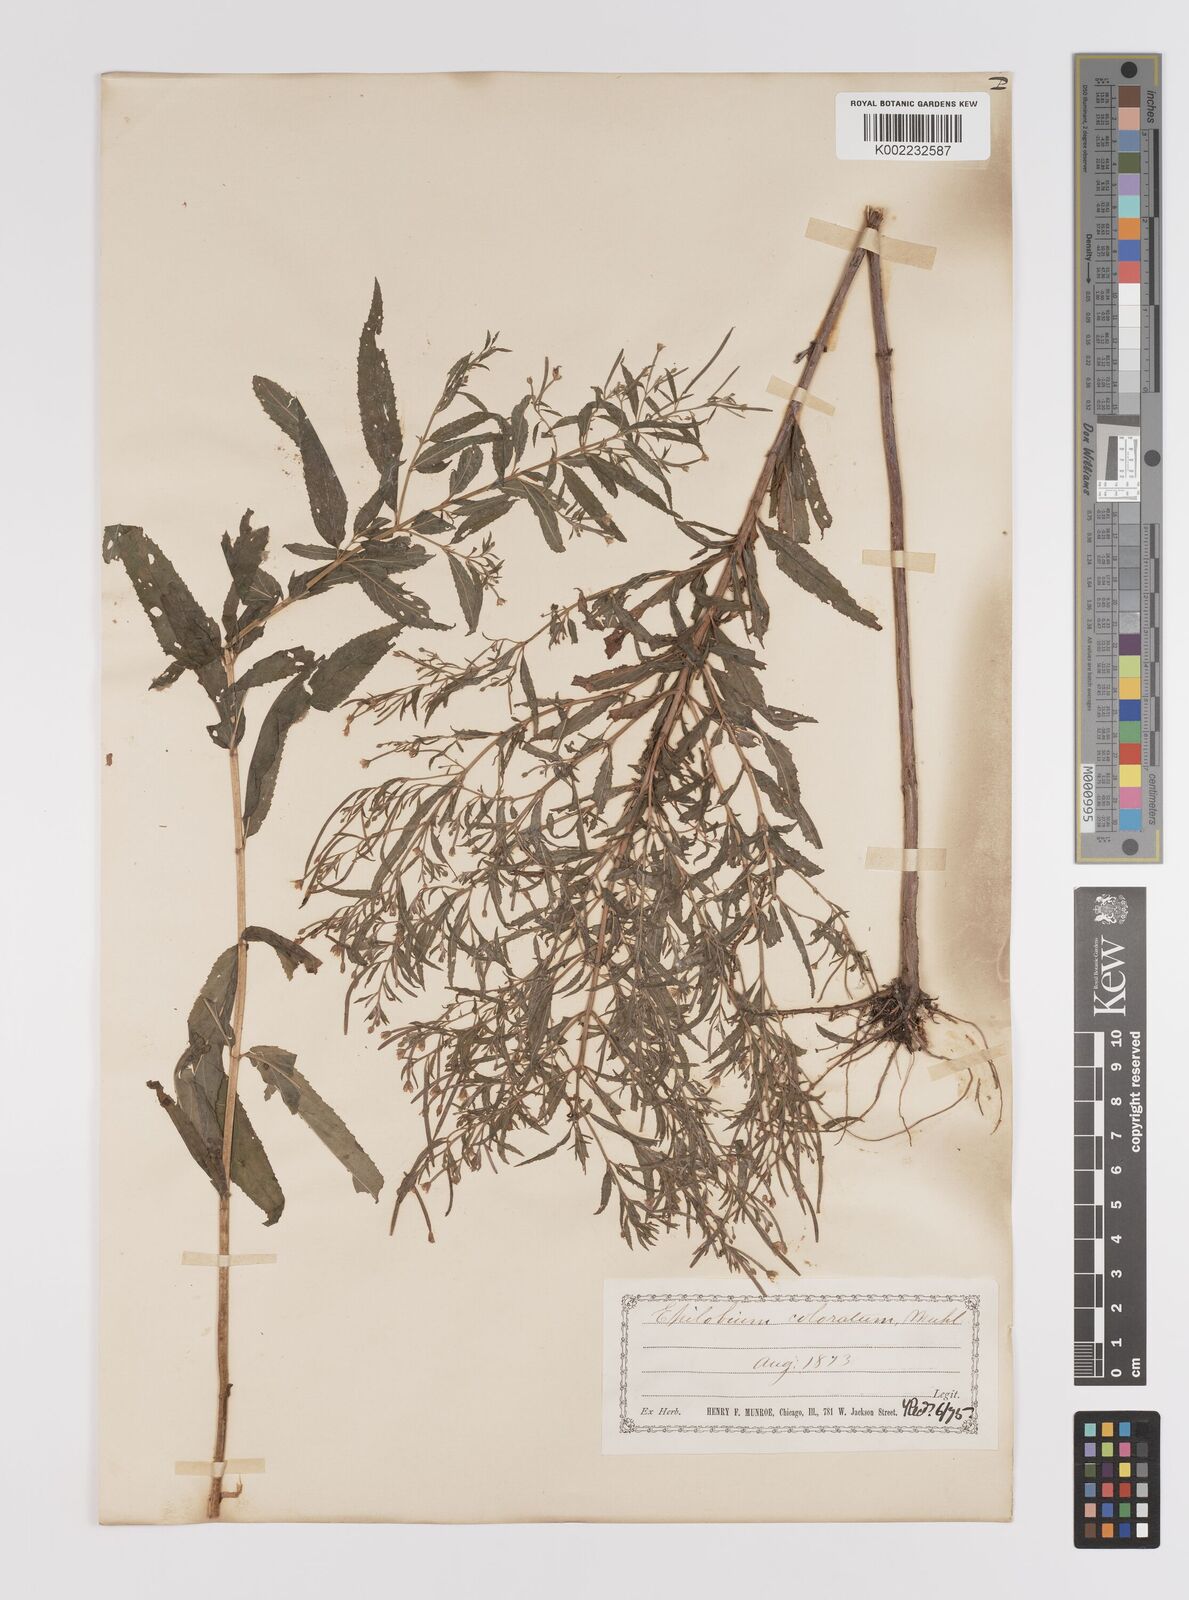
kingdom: Plantae
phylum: Tracheophyta
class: Magnoliopsida
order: Myrtales
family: Onagraceae
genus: Epilobium
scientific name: Epilobium coloratum
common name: Bronze willowherb
